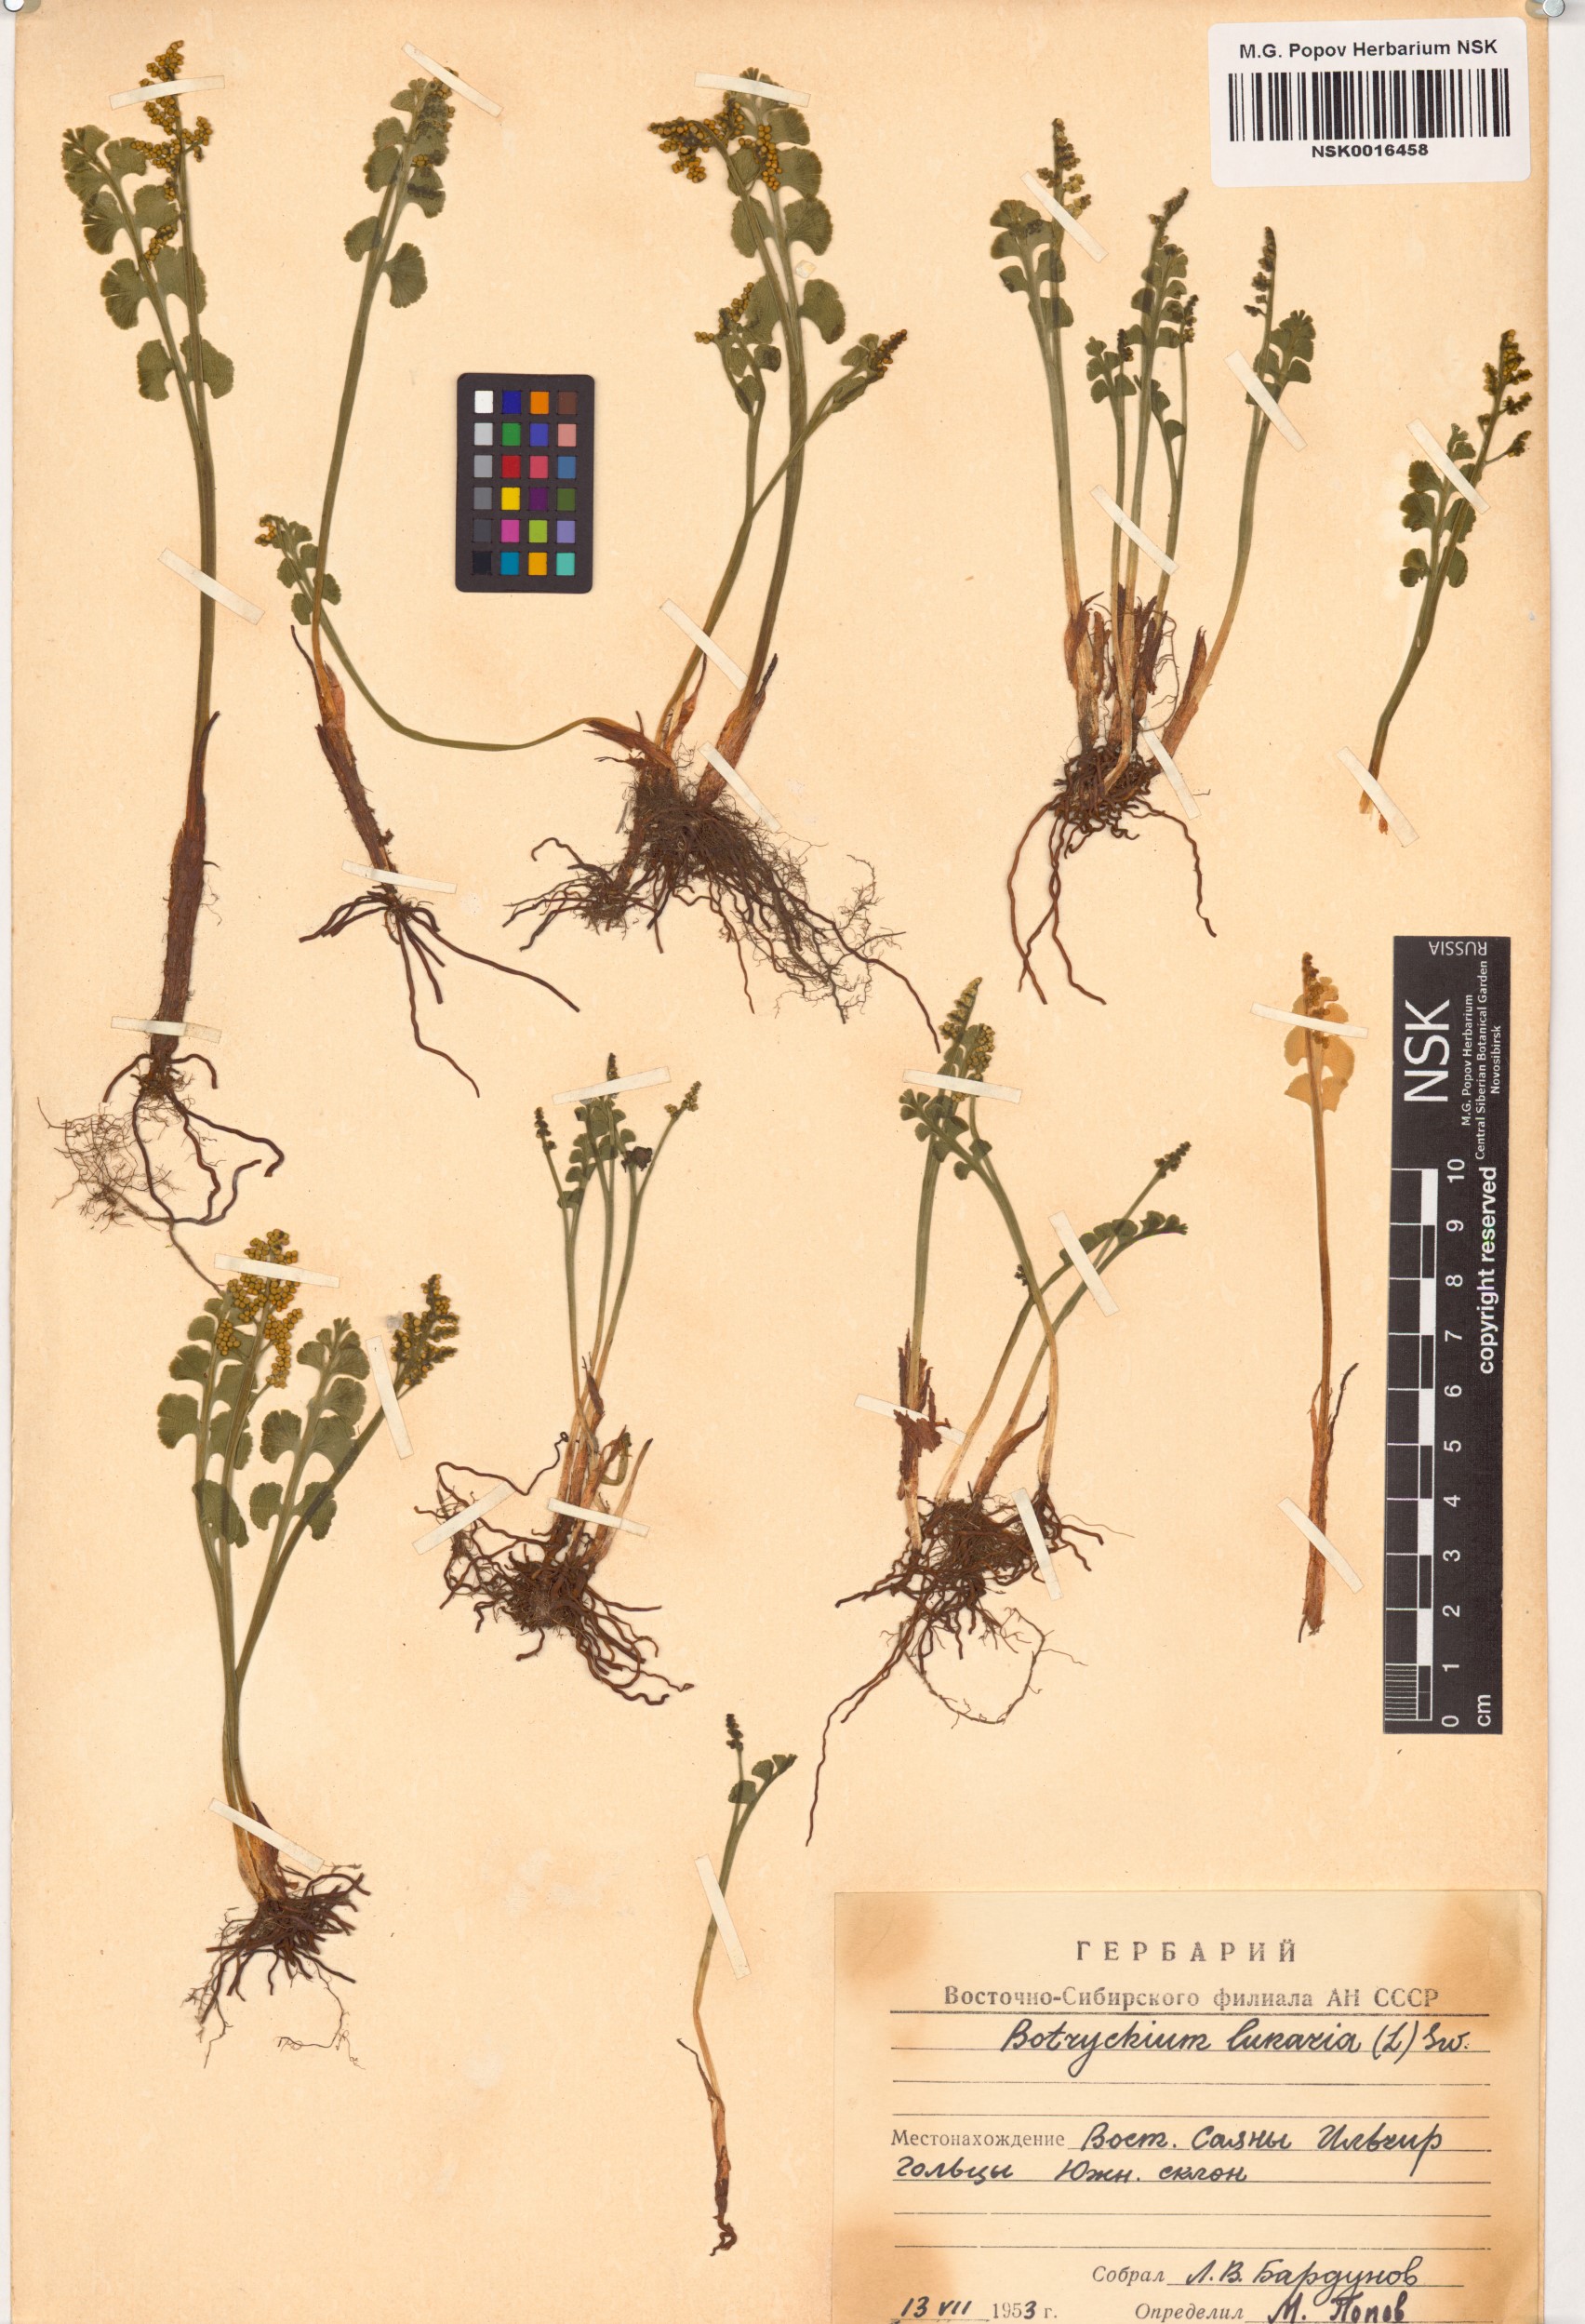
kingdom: Plantae
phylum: Tracheophyta
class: Polypodiopsida
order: Ophioglossales
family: Ophioglossaceae
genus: Botrychium
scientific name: Botrychium lunaria
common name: Moonwort
